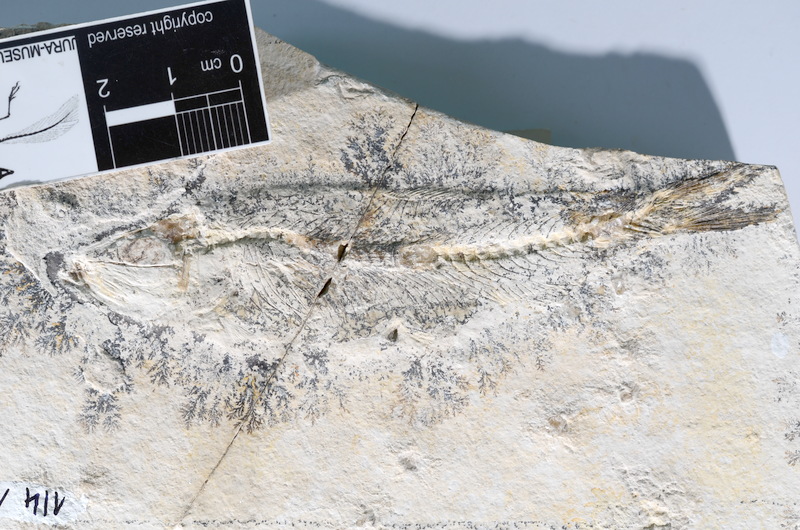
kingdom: Animalia
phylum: Chordata
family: Ascalaboidae
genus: Ascalabos
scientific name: Ascalabos voithii
